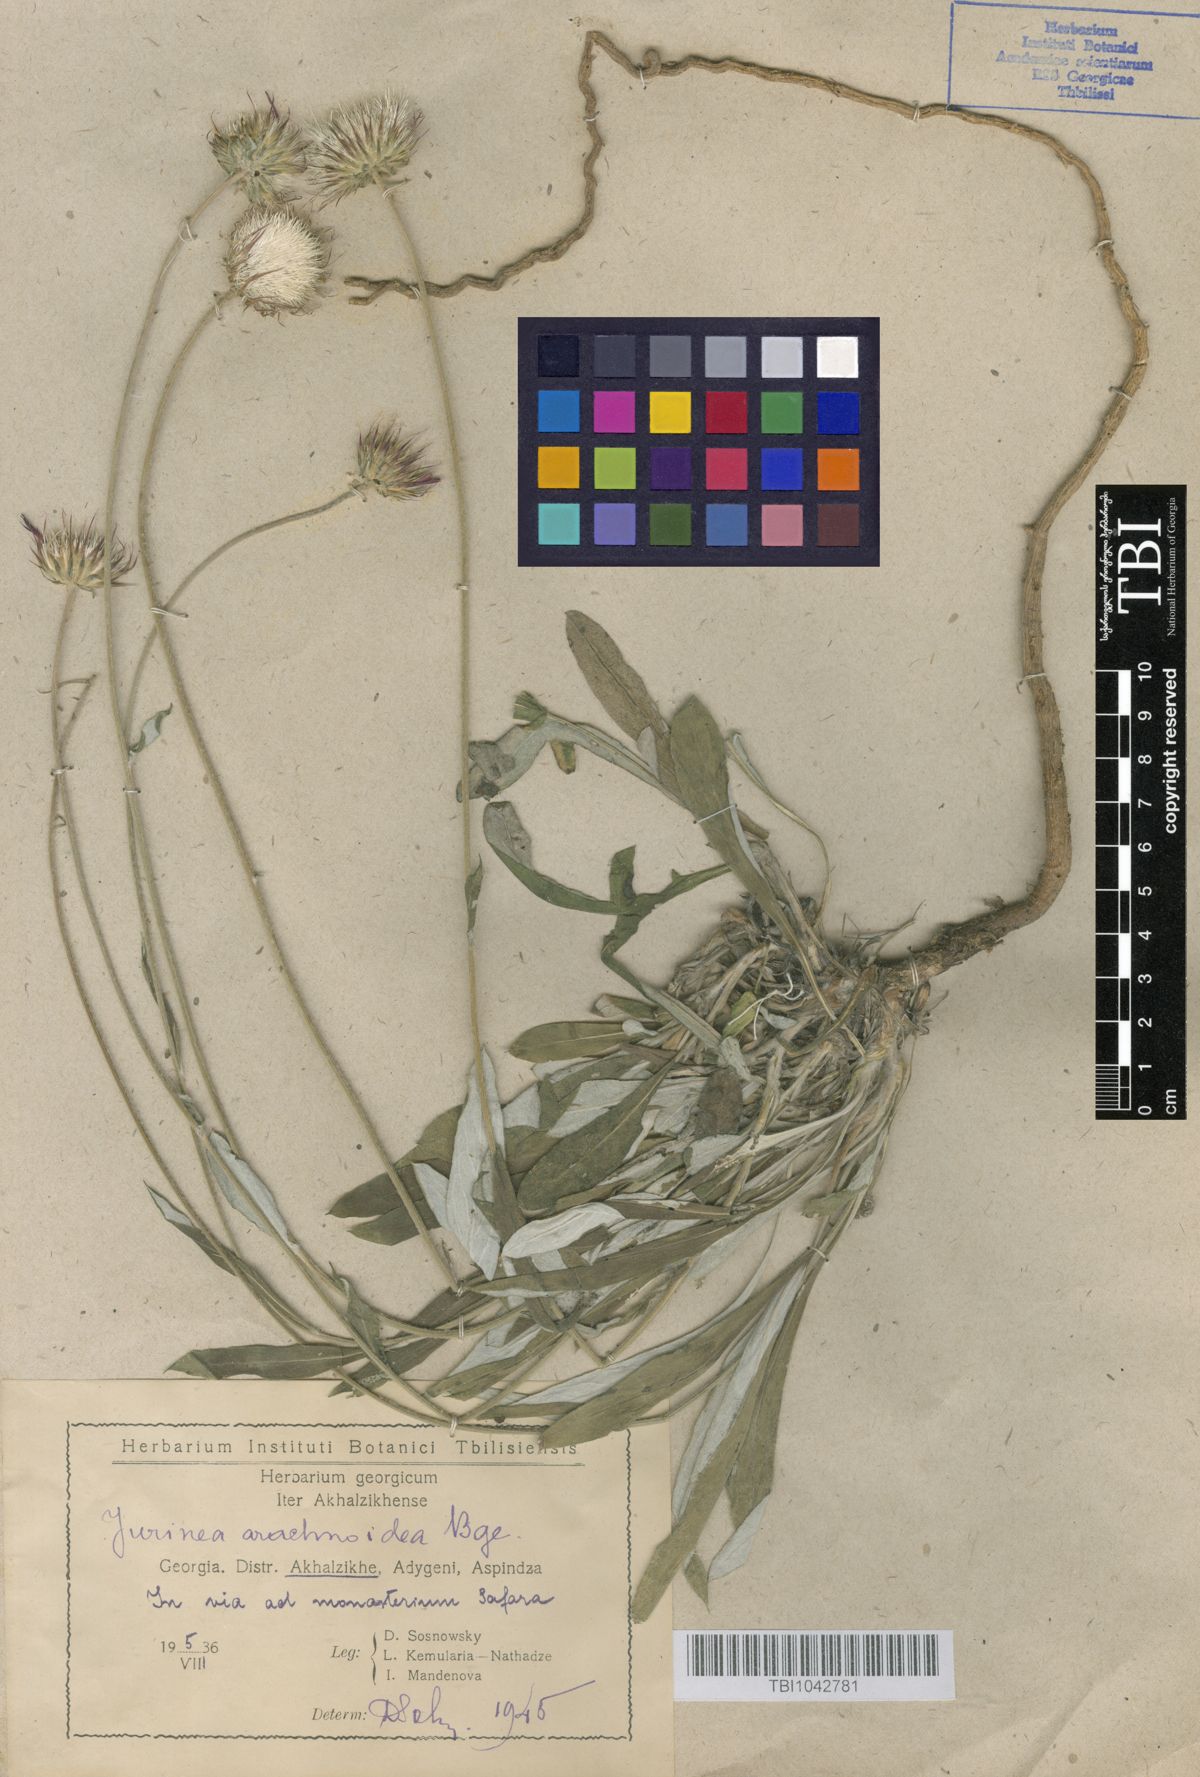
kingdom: Plantae
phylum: Tracheophyta
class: Magnoliopsida
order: Asterales
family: Asteraceae
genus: Jurinea
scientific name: Jurinea blanda
